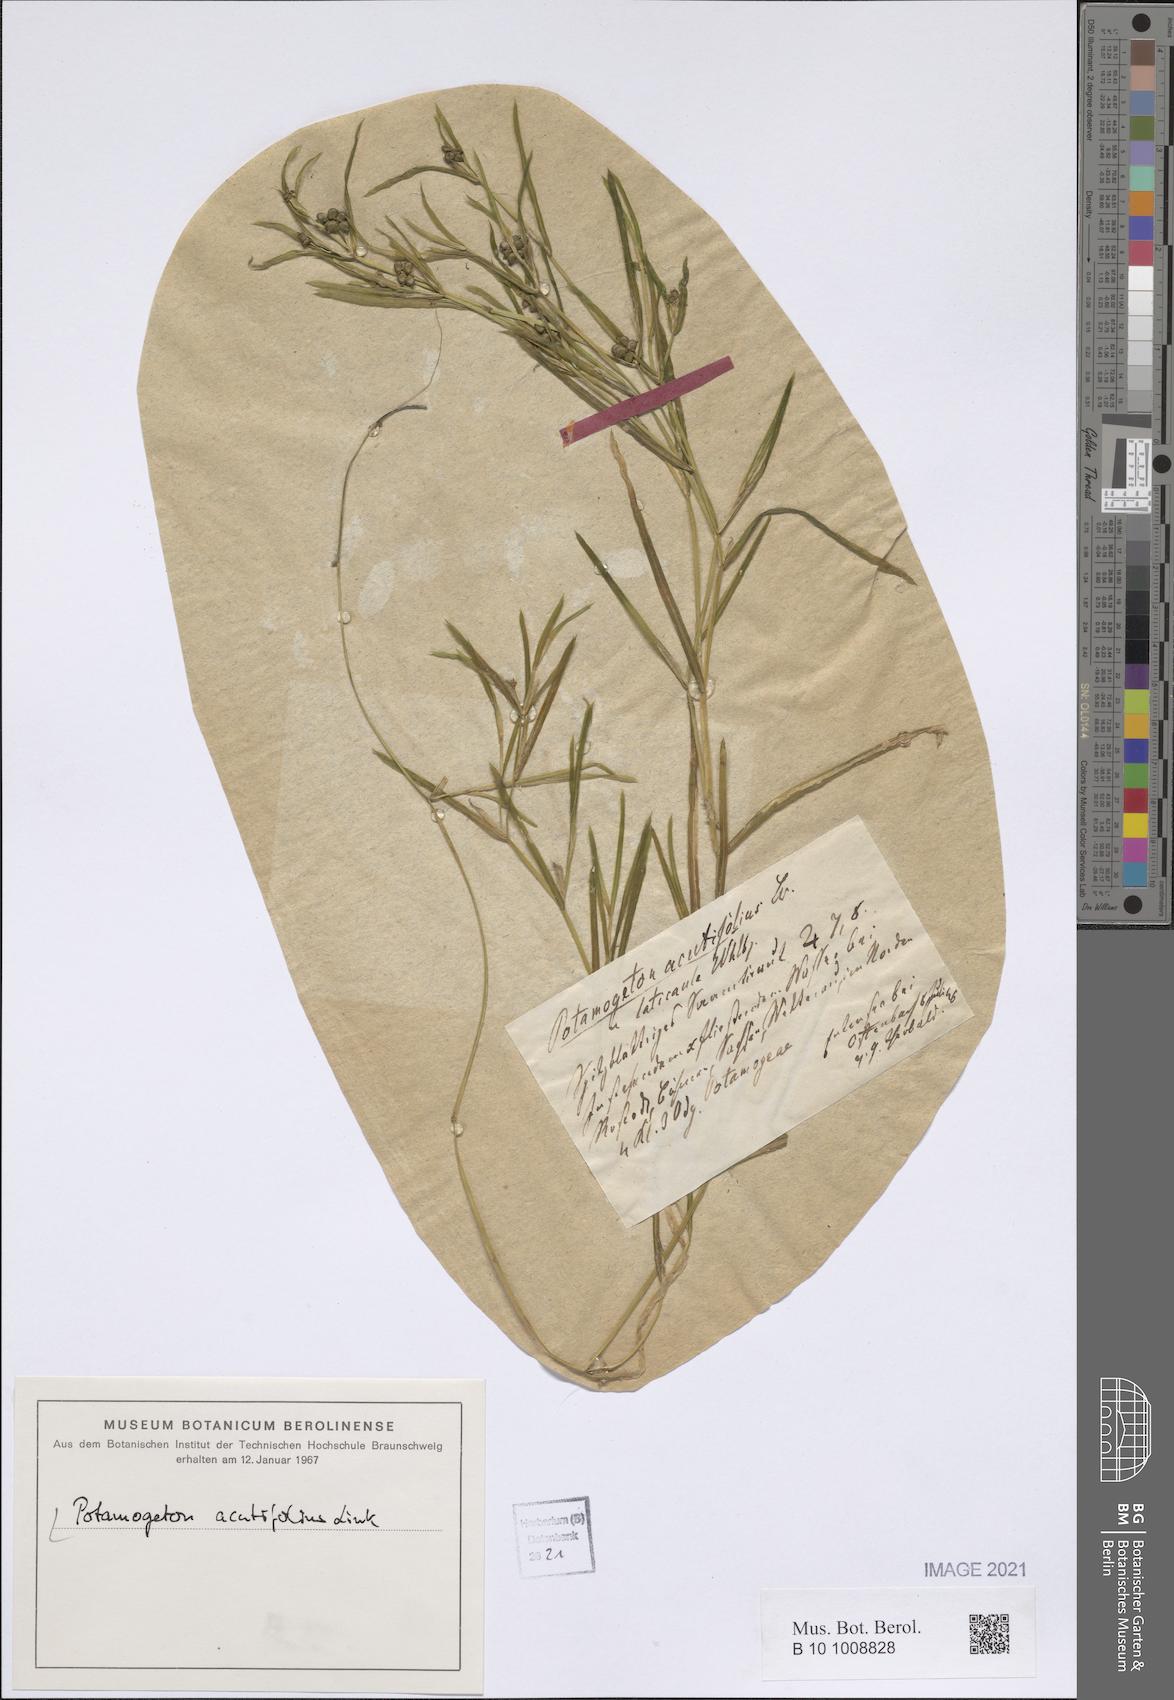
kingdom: Plantae
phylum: Tracheophyta
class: Liliopsida
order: Alismatales
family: Potamogetonaceae
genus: Potamogeton
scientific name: Potamogeton acutifolius
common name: Sharp-leaved pondweed
